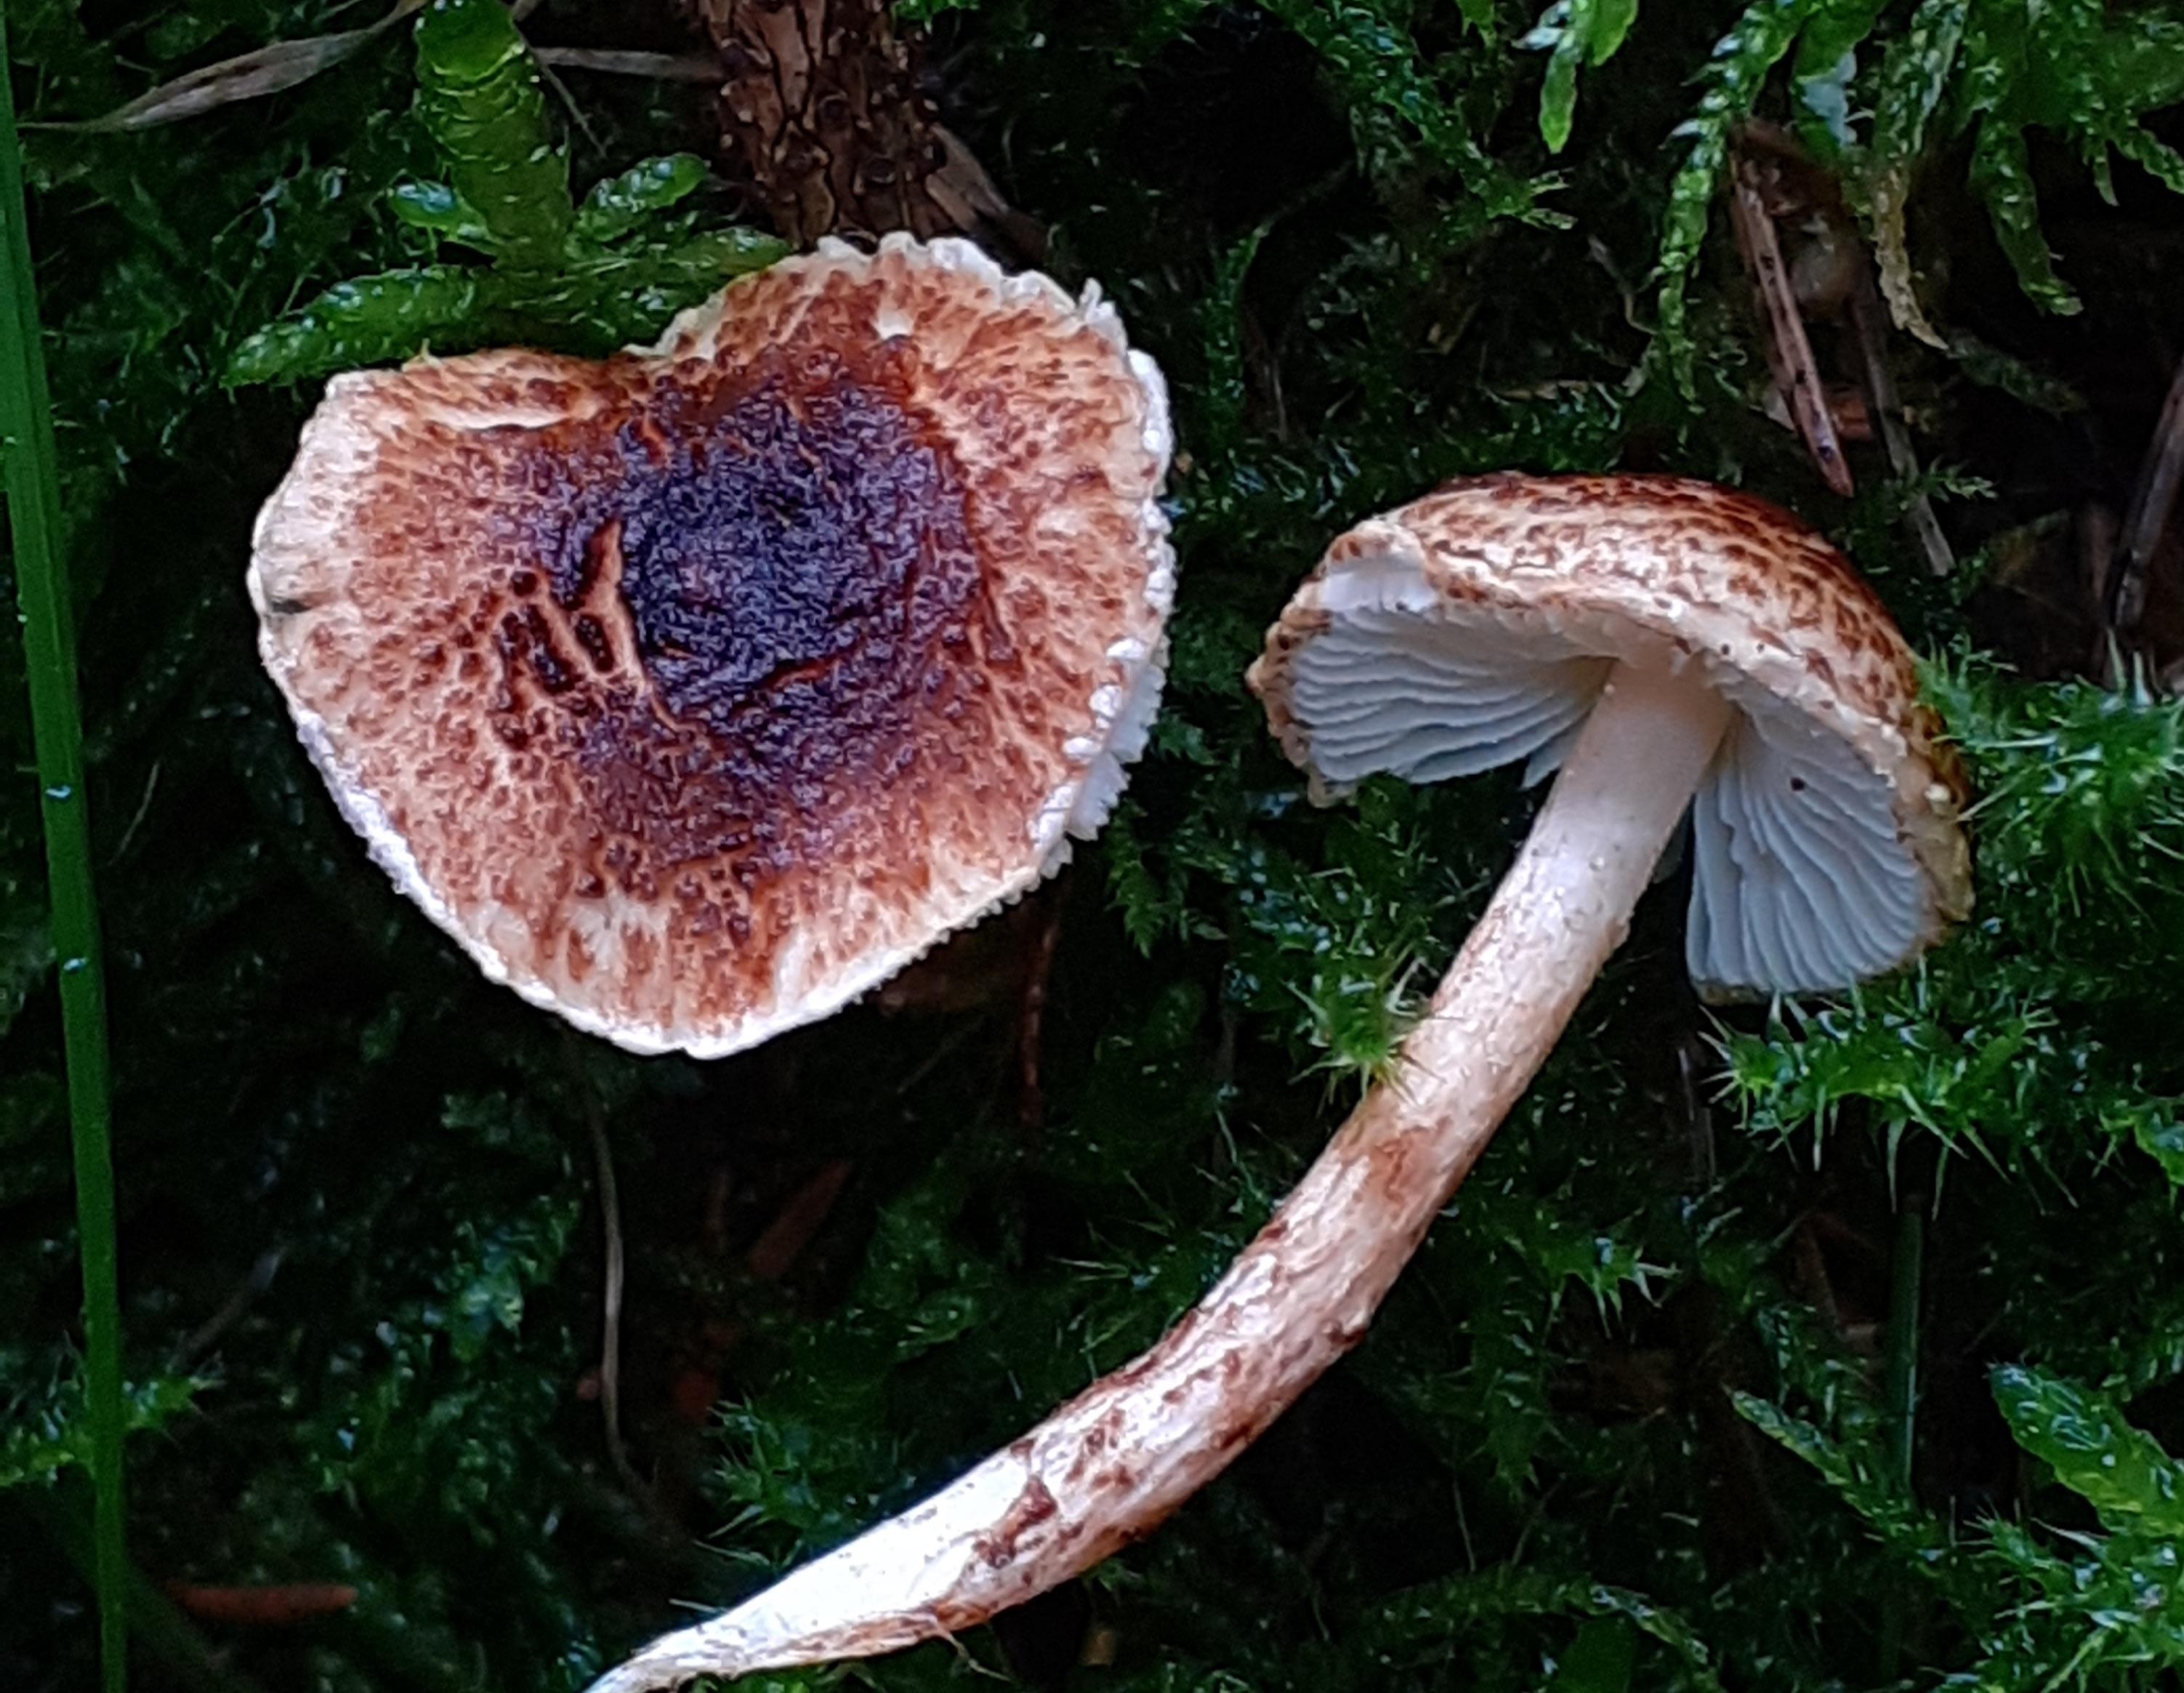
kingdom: Fungi
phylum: Basidiomycota
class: Agaricomycetes
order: Agaricales
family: Agaricaceae
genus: Lepiota
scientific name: Lepiota castanea
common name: kastaniebrun parasolhat
